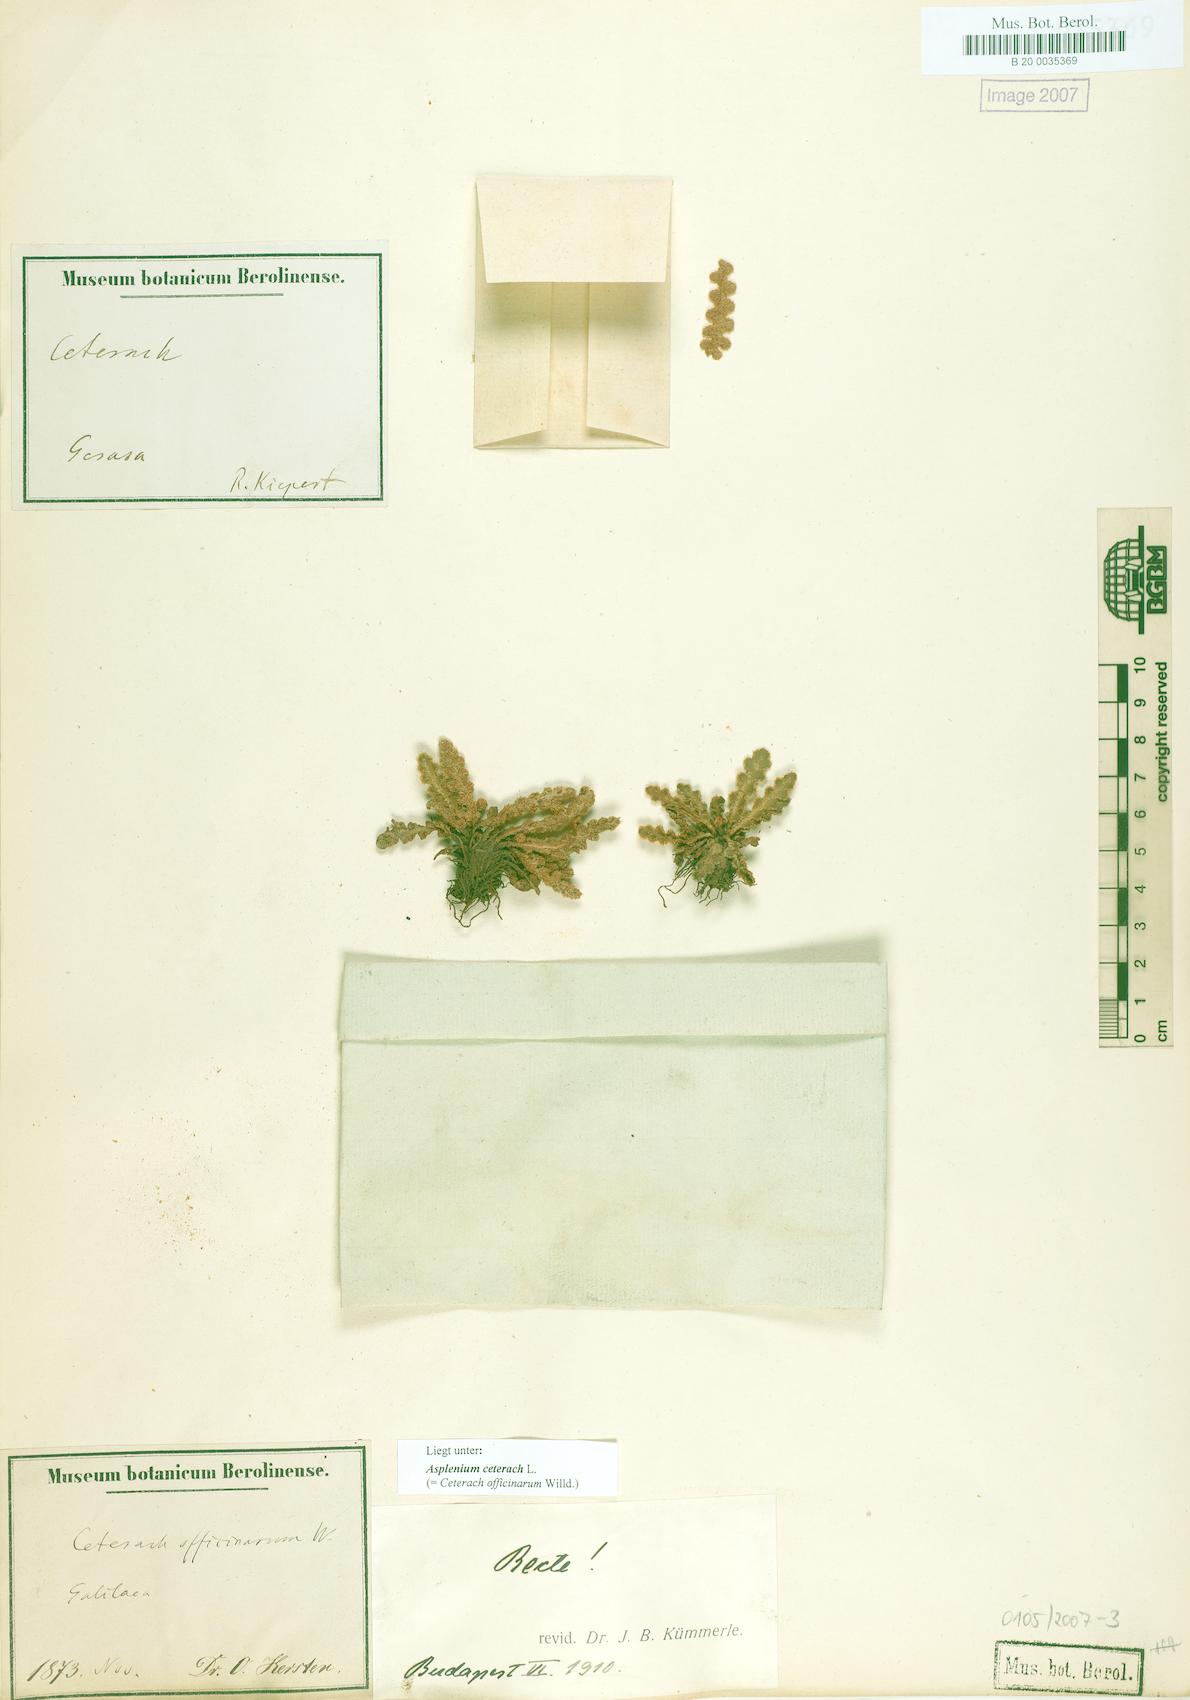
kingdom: Plantae
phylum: Tracheophyta
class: Polypodiopsida
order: Polypodiales
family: Aspleniaceae
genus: Asplenium
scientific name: Asplenium ceterach
